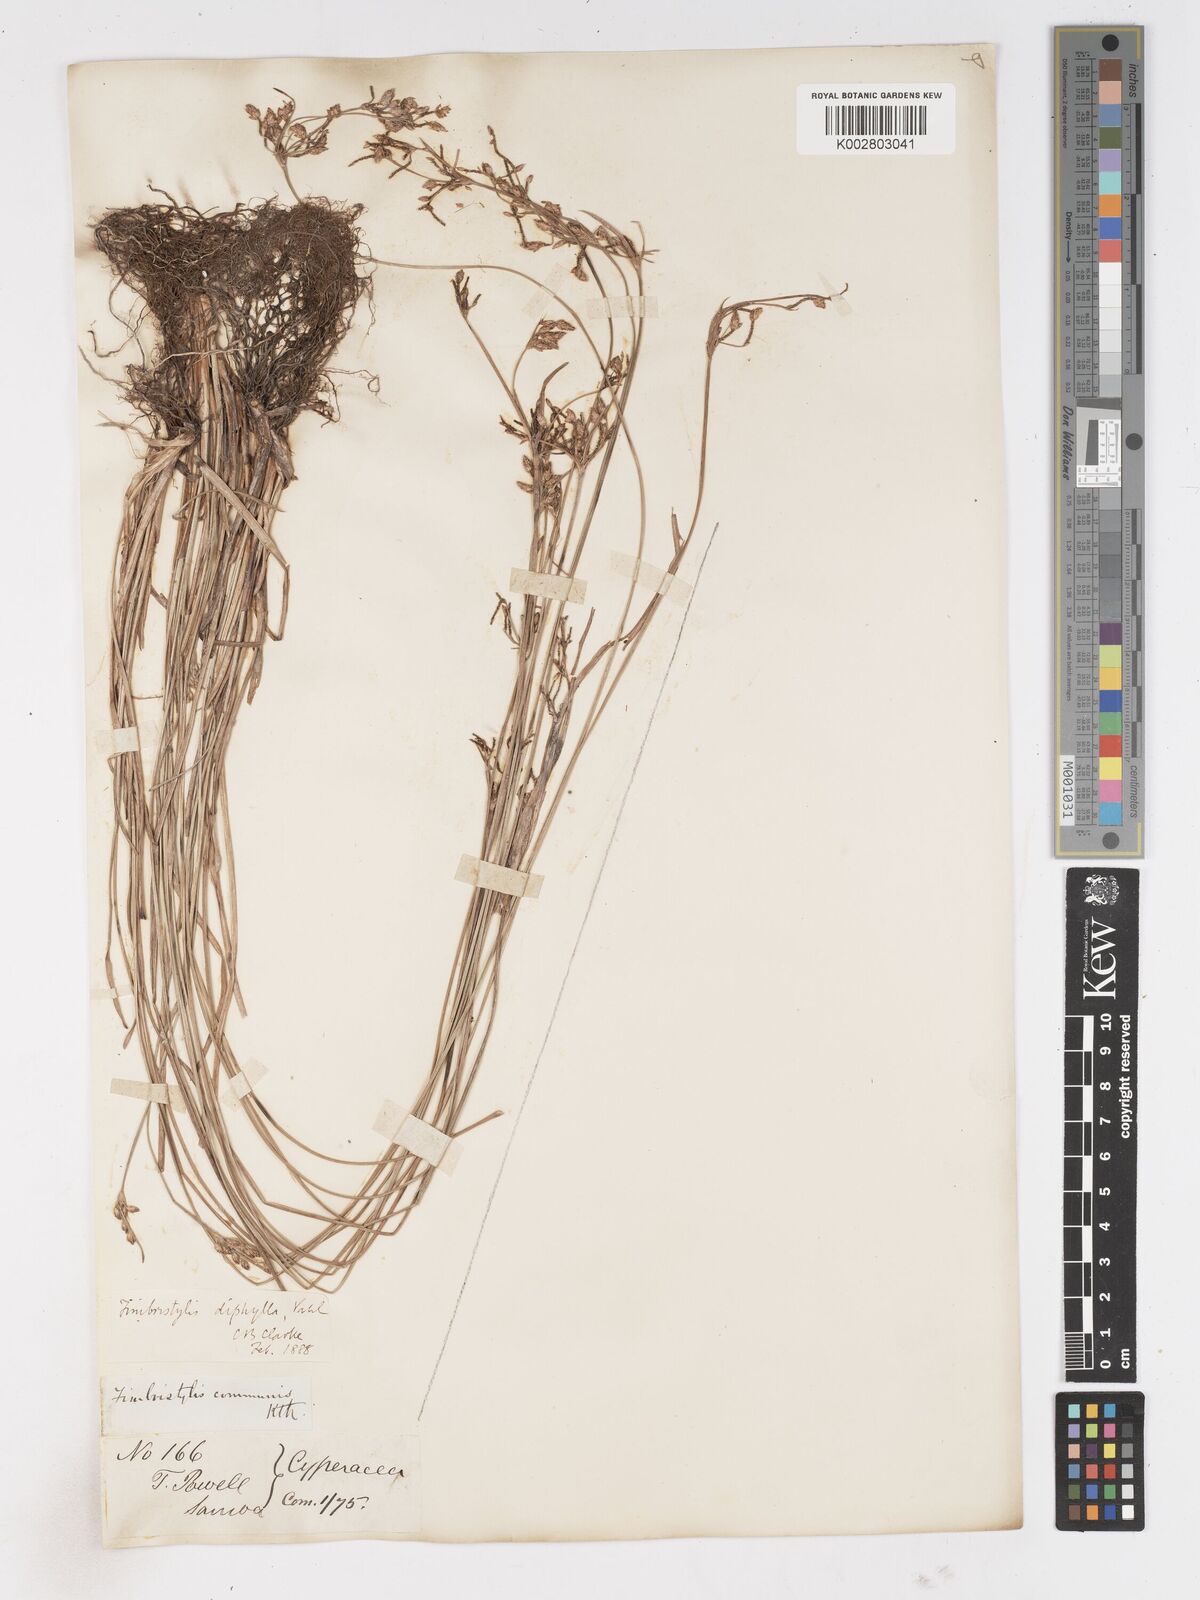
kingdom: Plantae
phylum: Tracheophyta
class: Liliopsida
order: Poales
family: Cyperaceae
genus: Fimbristylis
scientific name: Fimbristylis dichotoma
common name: Forked fimbry
